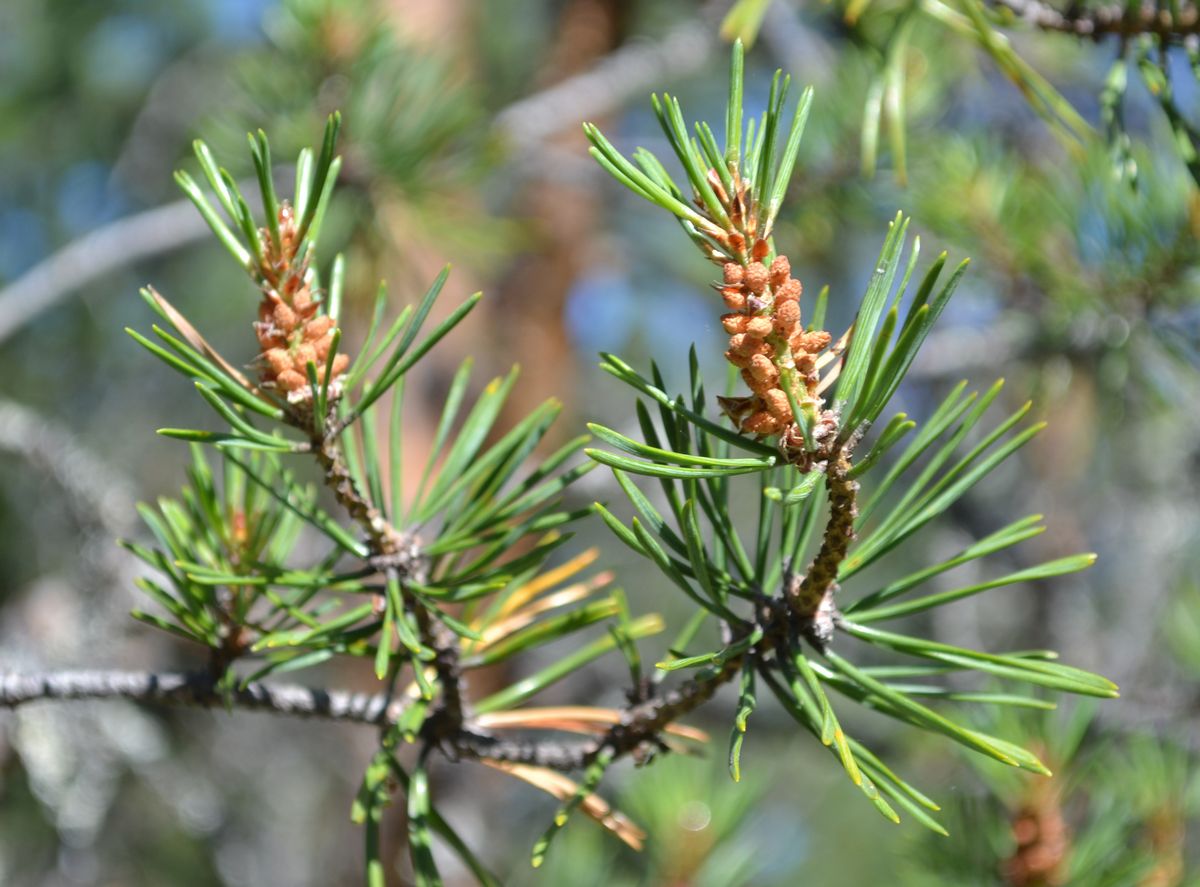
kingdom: Plantae
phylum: Tracheophyta
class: Pinopsida
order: Pinales
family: Pinaceae
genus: Pinus
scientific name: Pinus sylvestris
